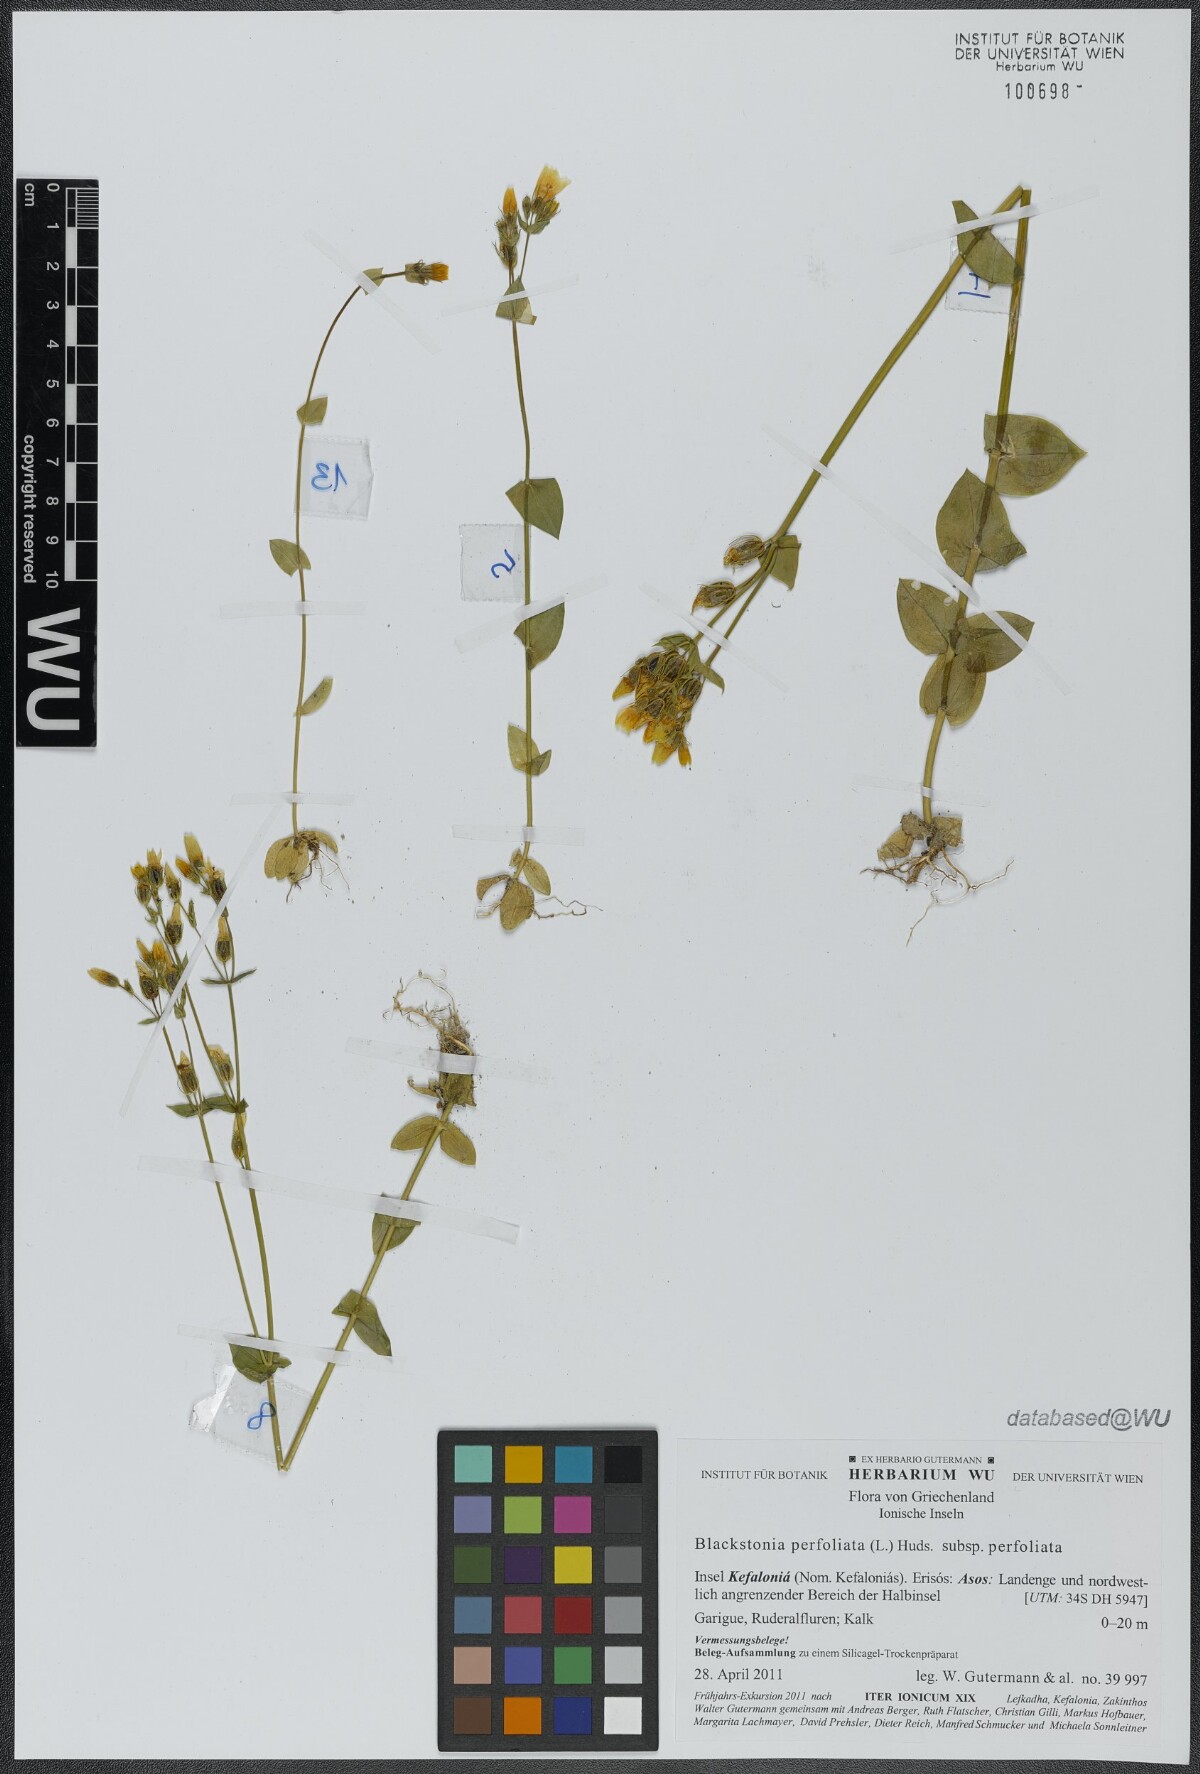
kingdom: Plantae
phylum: Tracheophyta
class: Magnoliopsida
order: Gentianales
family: Gentianaceae
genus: Blackstonia
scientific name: Blackstonia perfoliata
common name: Yellow-wort
